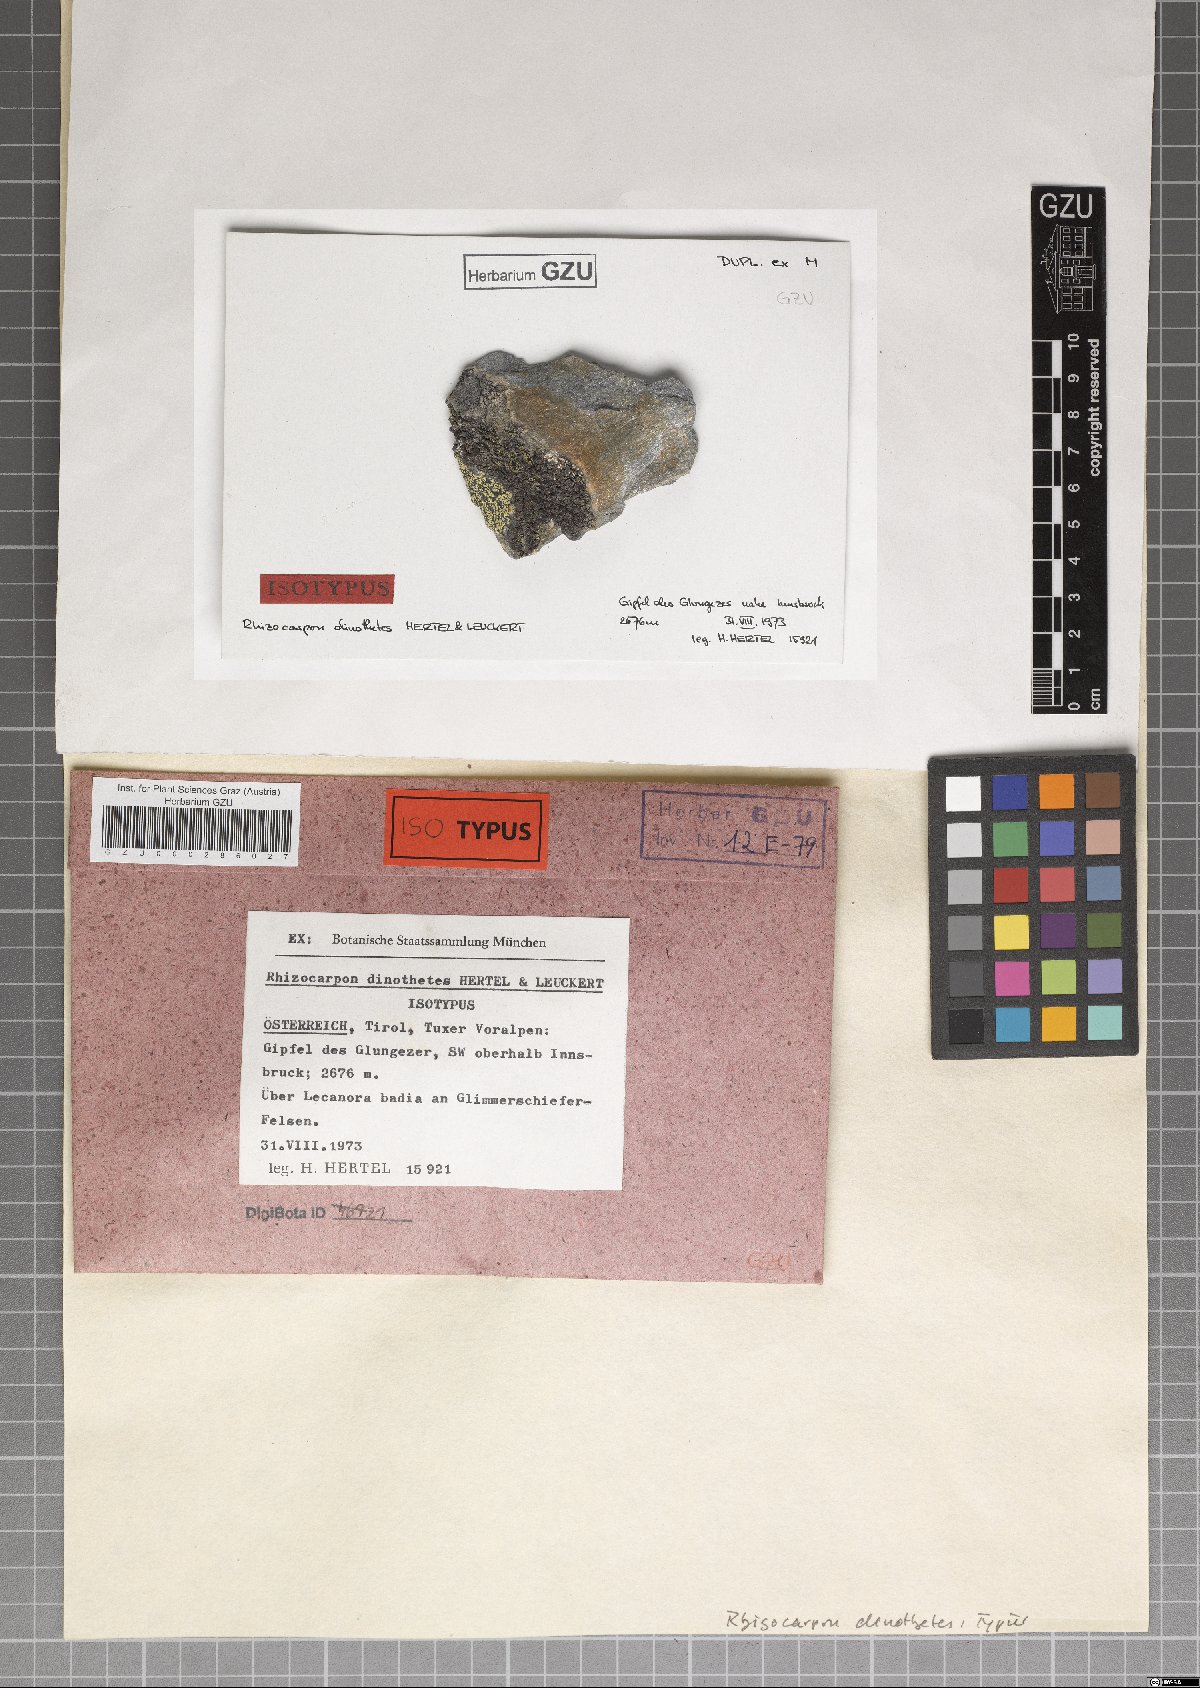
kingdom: Fungi
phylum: Ascomycota
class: Lecanoromycetes
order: Rhizocarpales
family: Rhizocarpaceae
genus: Rhizocarpon
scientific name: Rhizocarpon dinothetes
